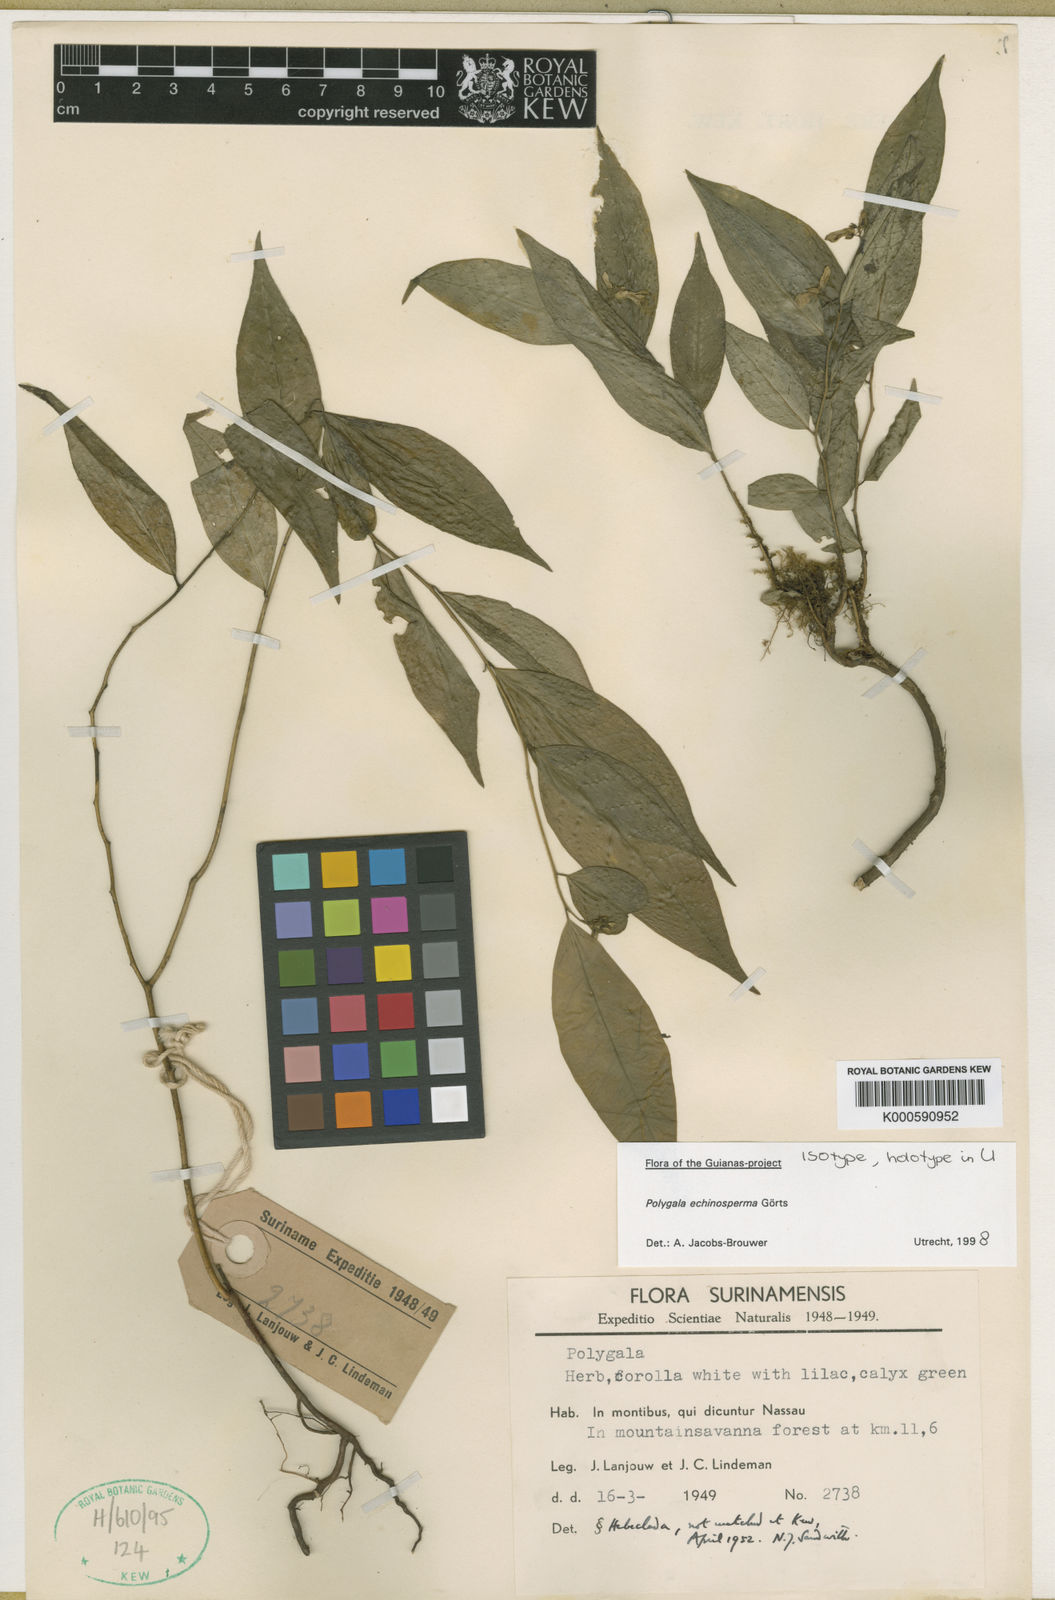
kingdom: Plantae
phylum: Tracheophyta
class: Magnoliopsida
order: Fabales
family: Polygalaceae
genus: Asemeia
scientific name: Asemeia echinosperma
